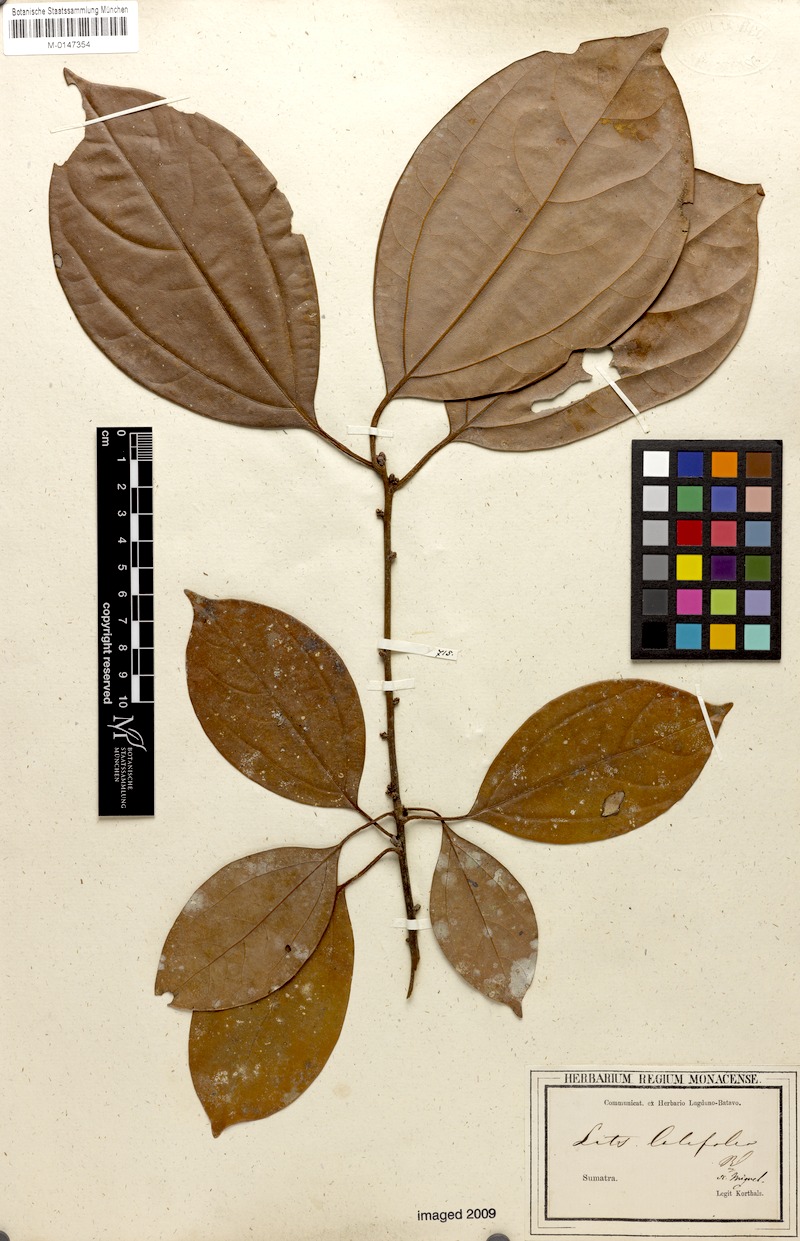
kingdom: Plantae
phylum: Tracheophyta
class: Magnoliopsida
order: Laurales
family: Lauraceae
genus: Lindera
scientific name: Lindera lucida
